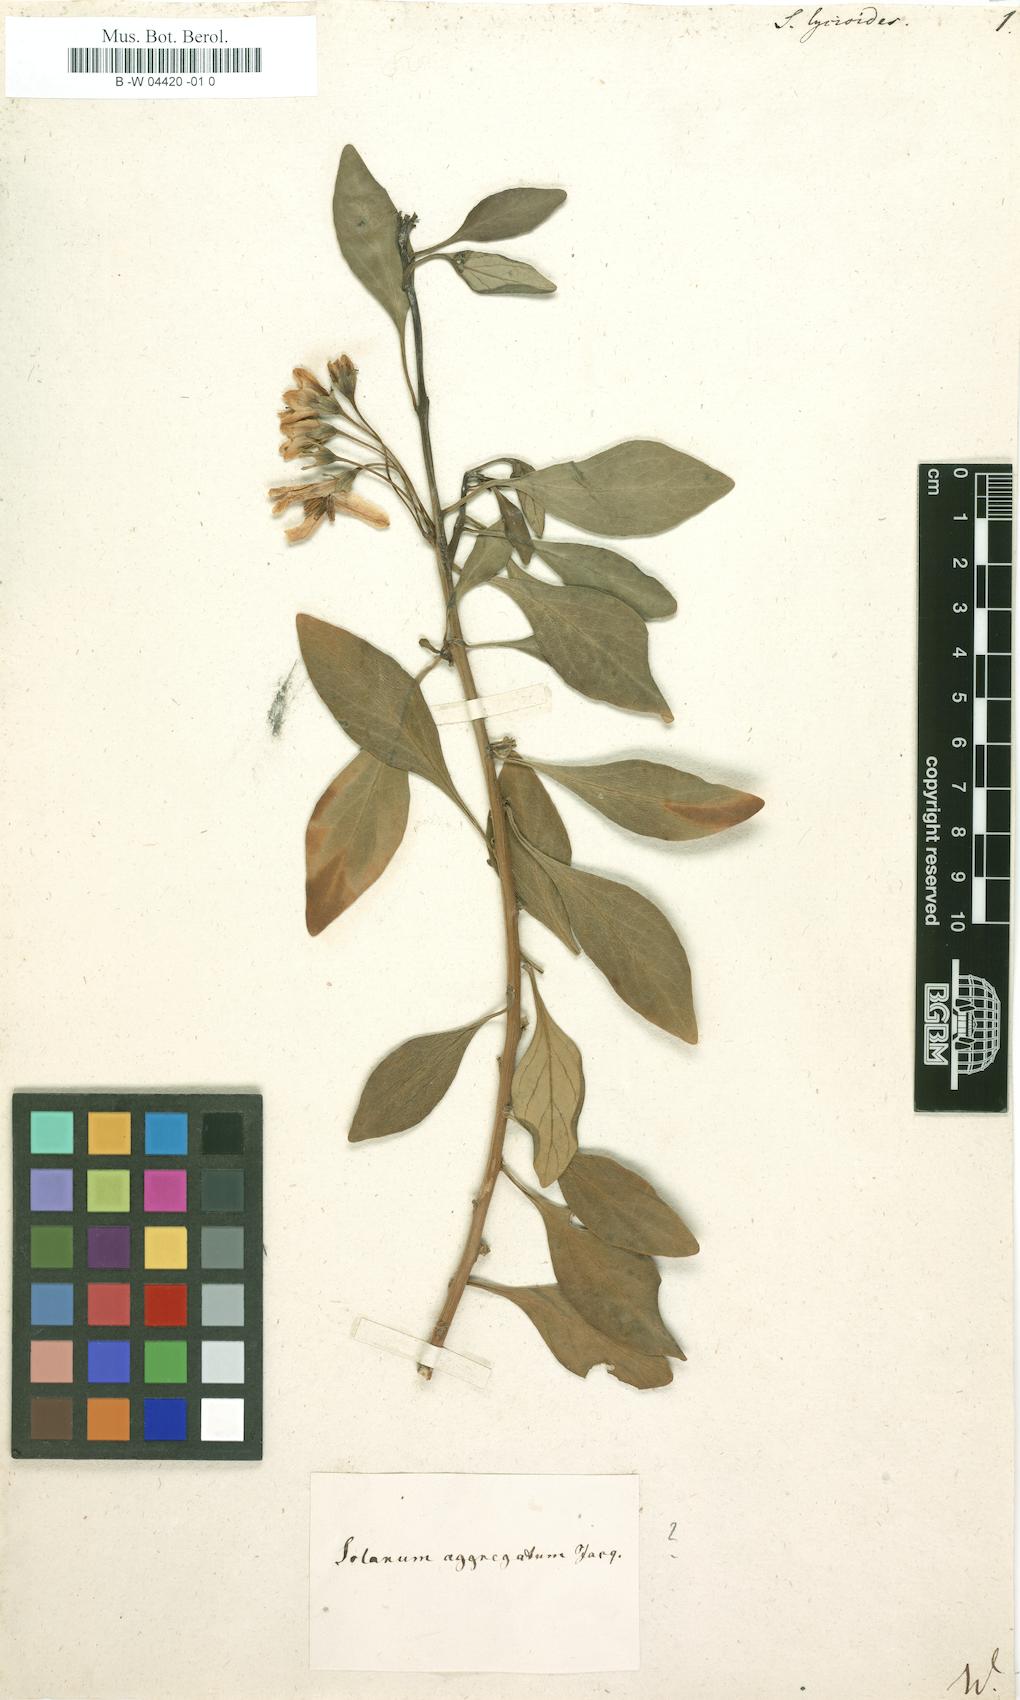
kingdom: Plantae
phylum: Tracheophyta
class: Magnoliopsida
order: Solanales
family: Solanaceae
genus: Lycianthes
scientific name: Lycianthes lycioides
